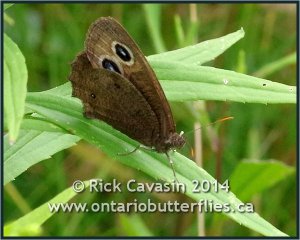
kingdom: Animalia
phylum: Arthropoda
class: Insecta
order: Lepidoptera
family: Nymphalidae
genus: Cercyonis
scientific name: Cercyonis pegala
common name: Common Wood-Nymph
